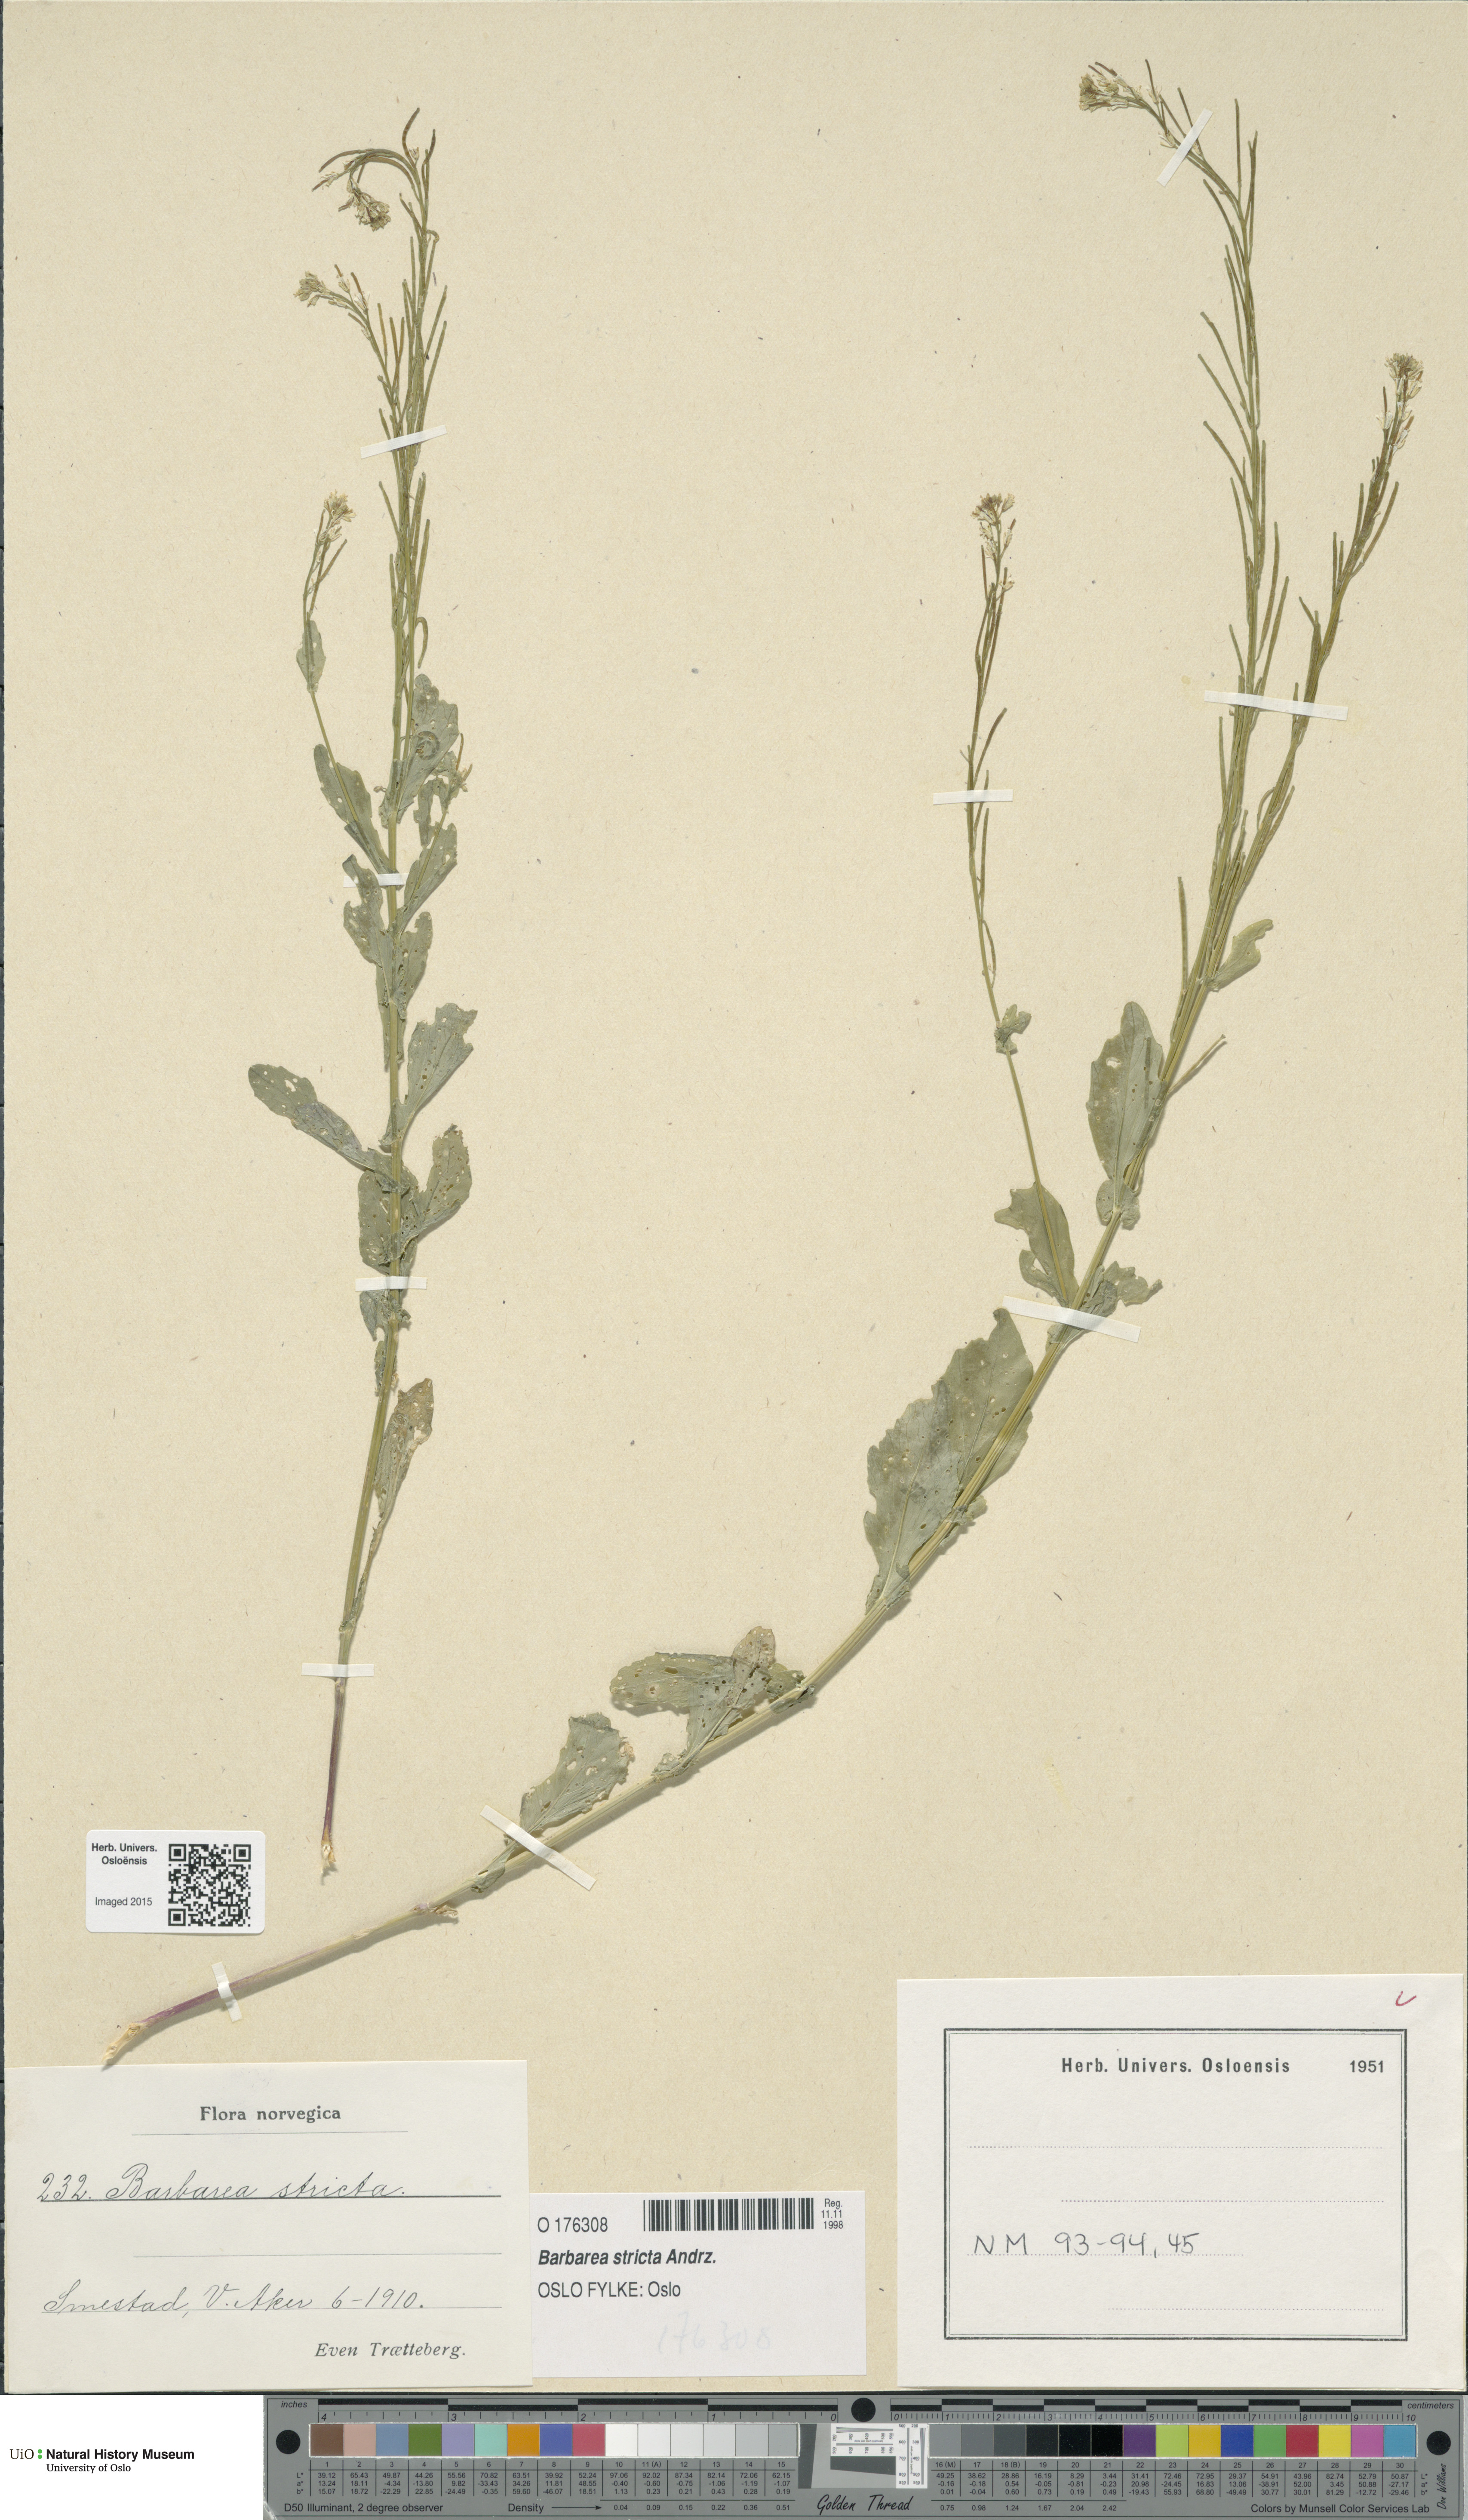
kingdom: Plantae
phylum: Tracheophyta
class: Magnoliopsida
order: Brassicales
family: Brassicaceae
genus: Barbarea
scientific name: Barbarea stricta
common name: Small-flowered winter-cress
